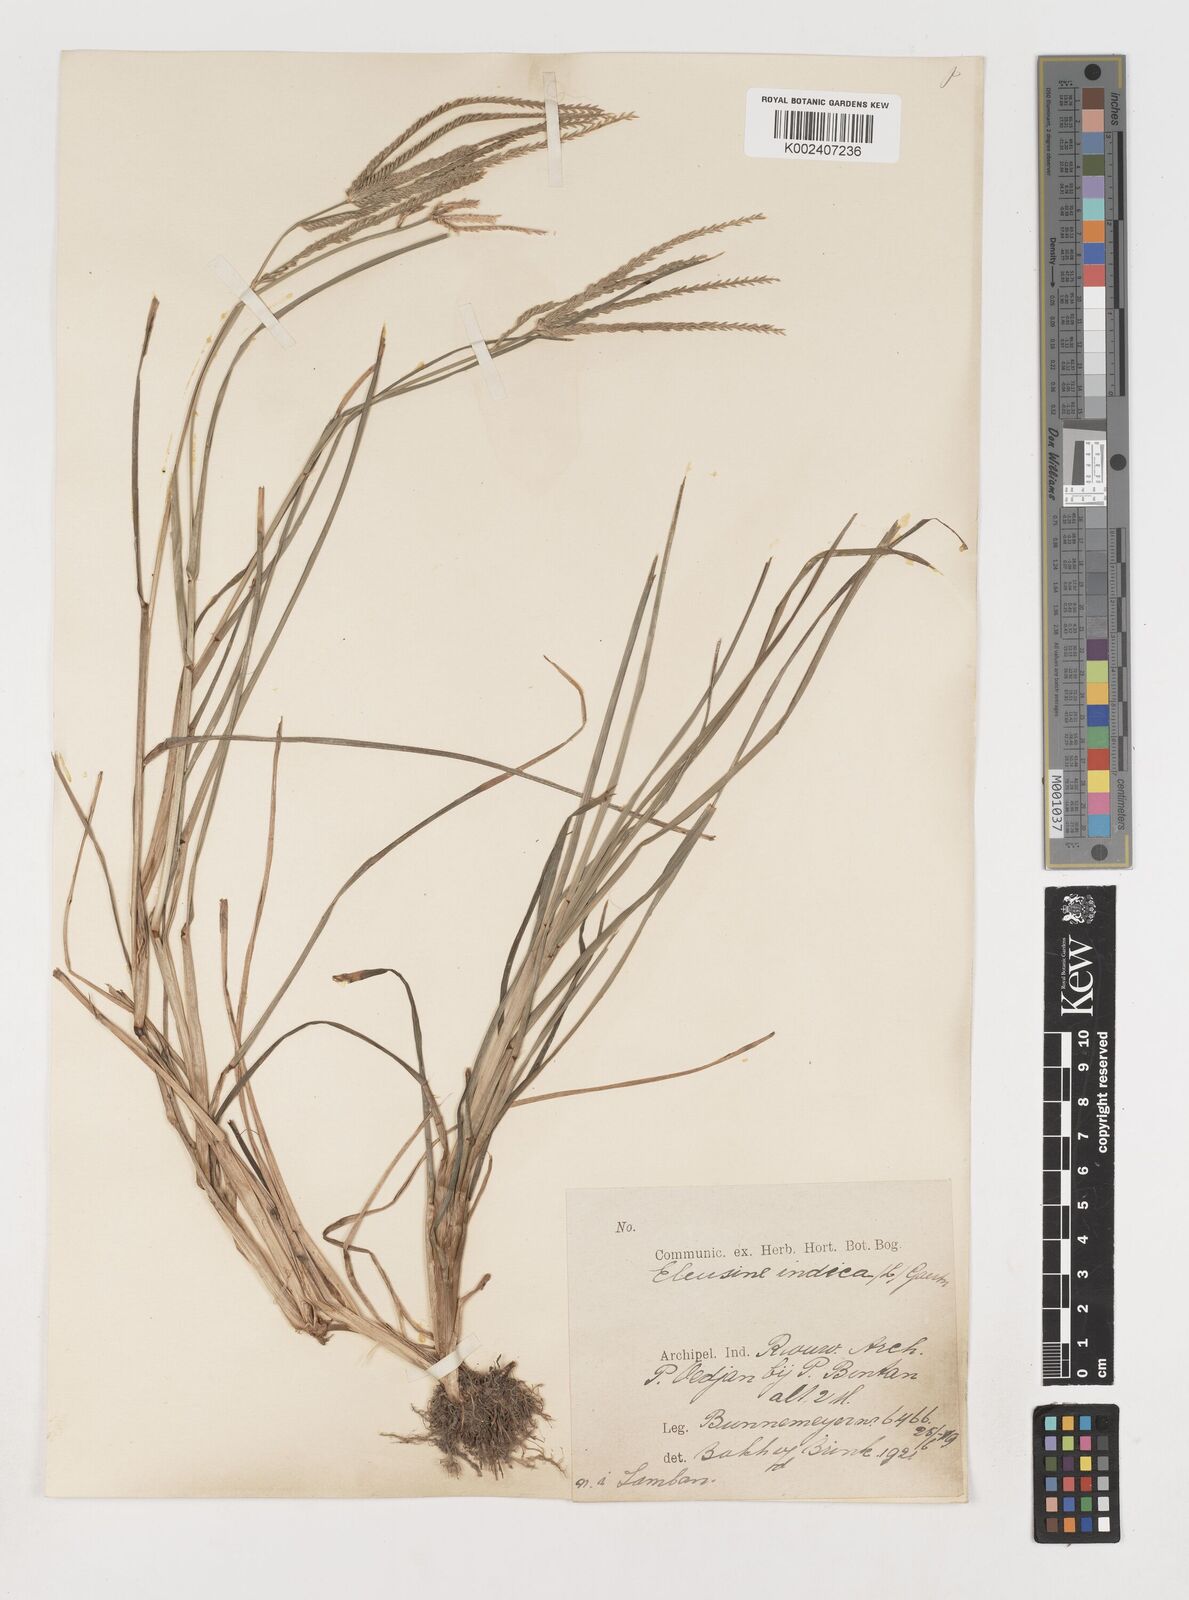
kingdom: Plantae
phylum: Tracheophyta
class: Liliopsida
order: Poales
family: Poaceae
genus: Eleusine
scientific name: Eleusine indica
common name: Yard-grass
